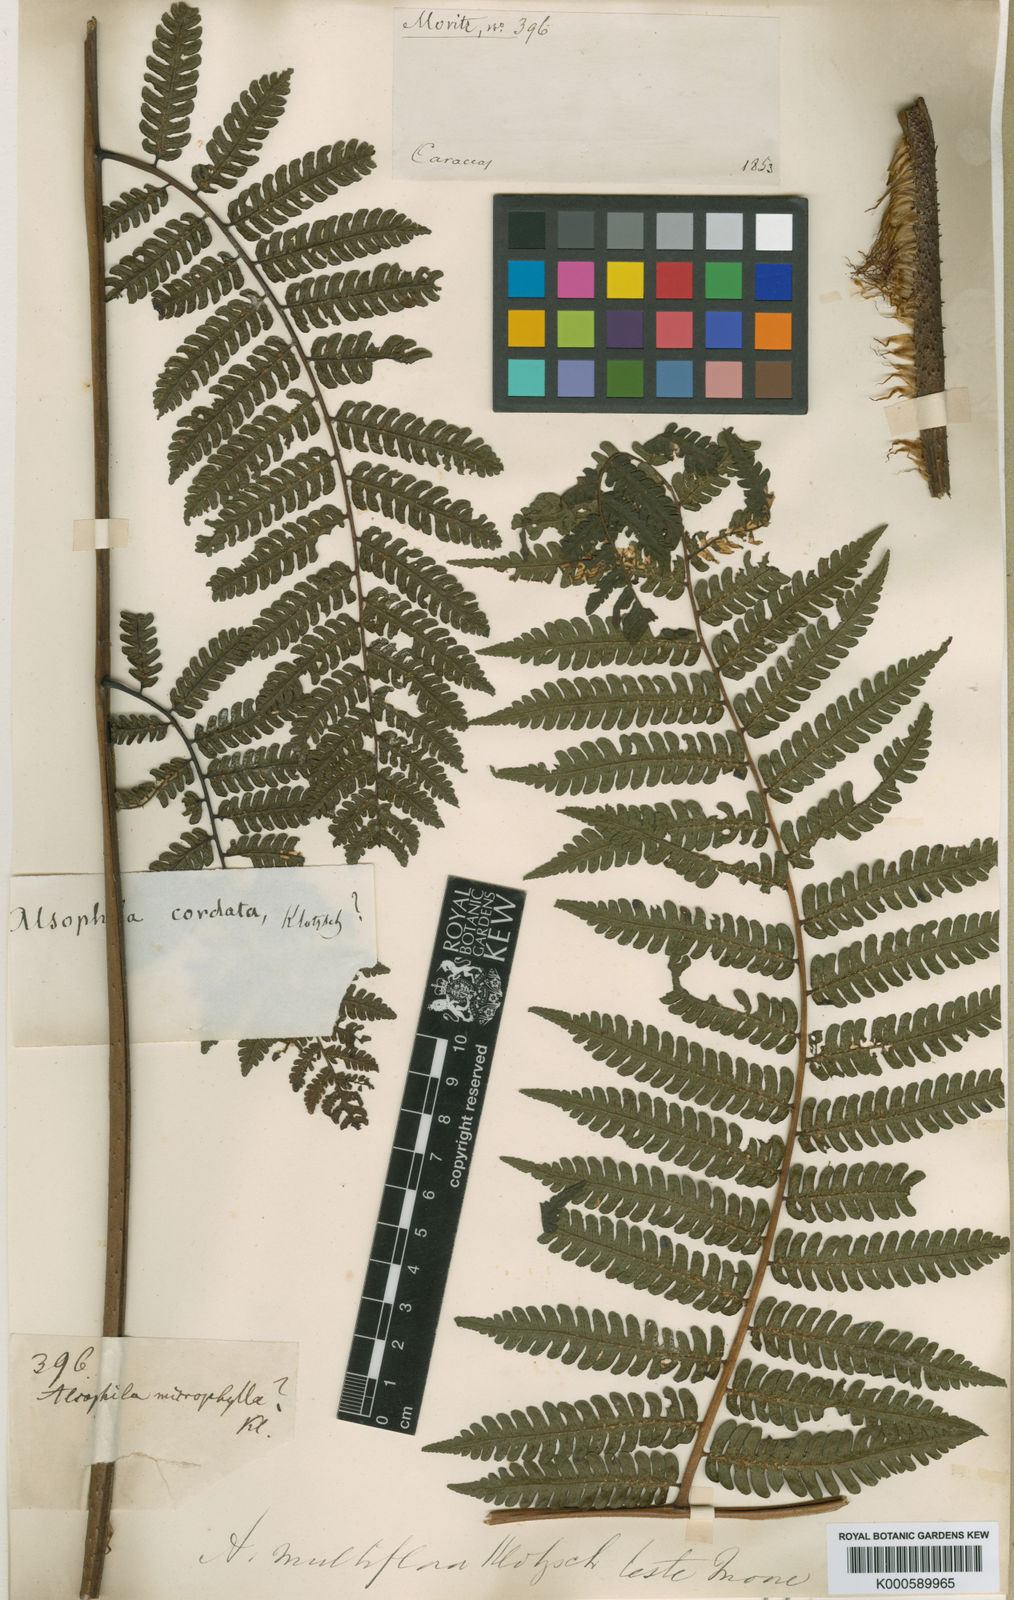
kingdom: Plantae
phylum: Tracheophyta
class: Polypodiopsida
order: Cyatheales
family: Cyatheaceae
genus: Cyathea
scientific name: Cyathea microphylla
